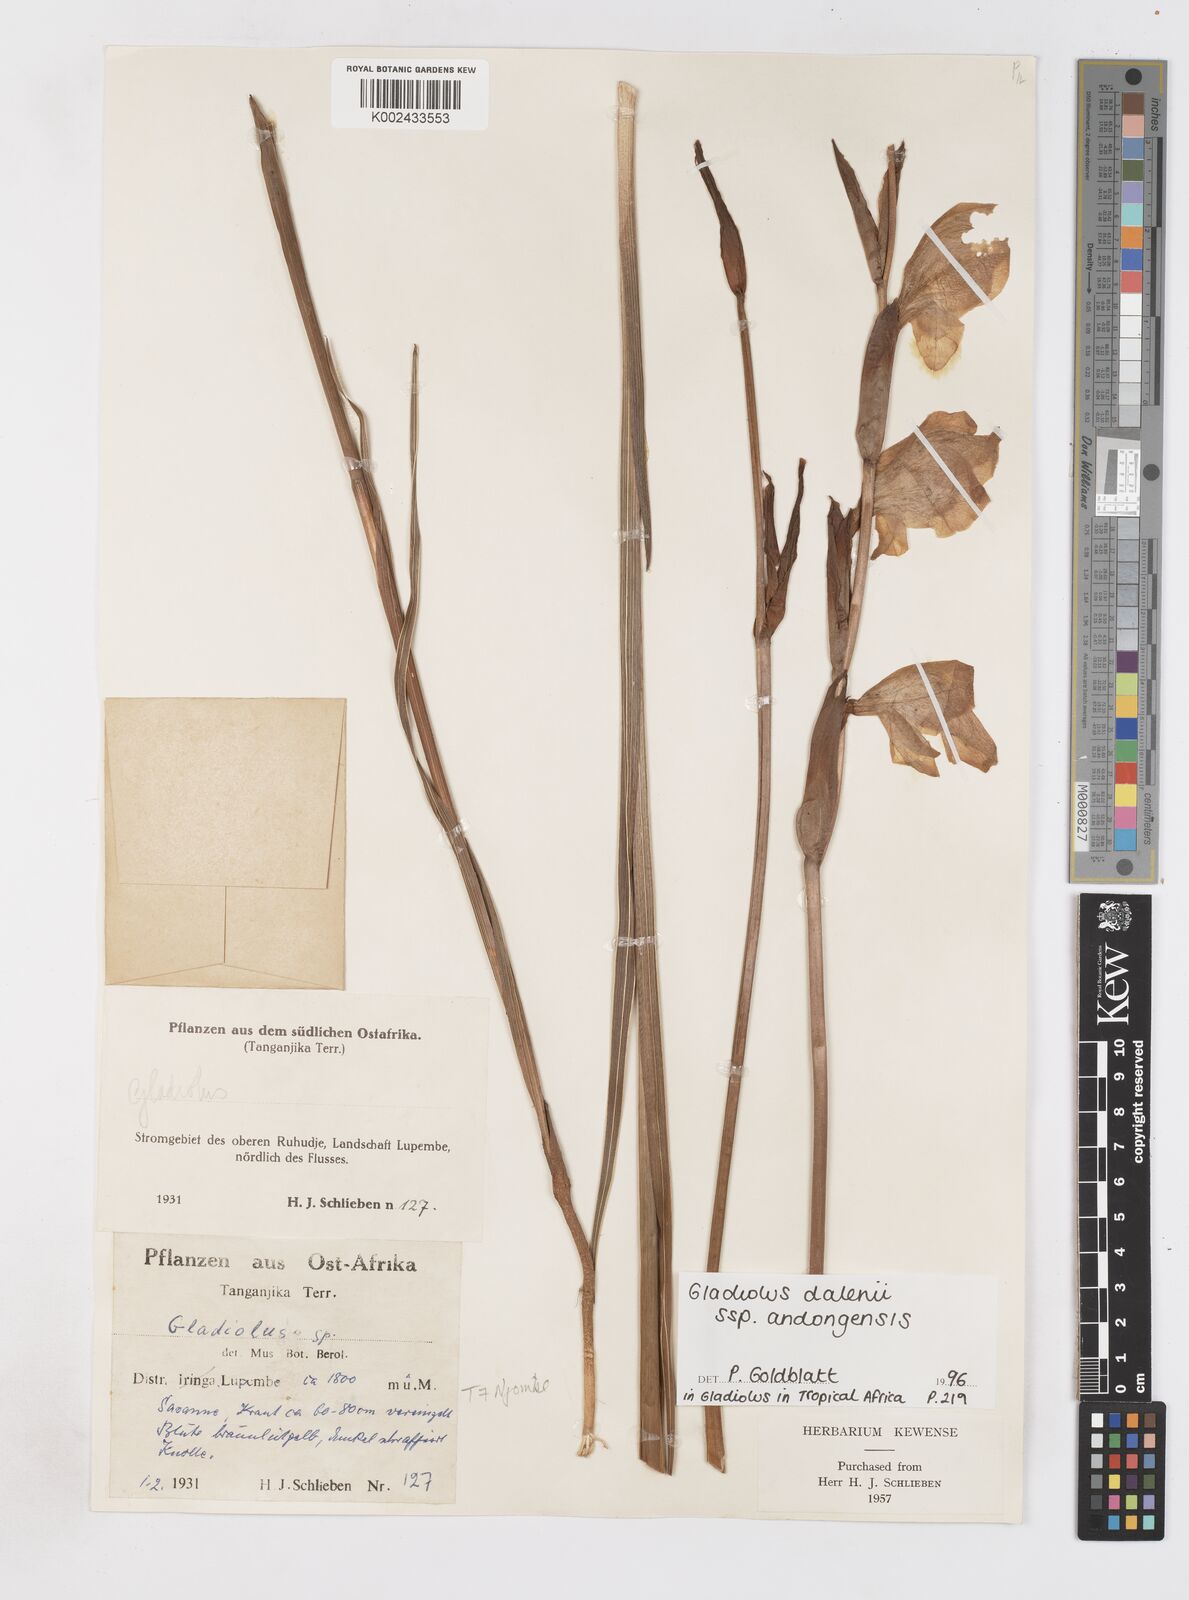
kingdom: Plantae
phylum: Tracheophyta
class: Liliopsida
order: Asparagales
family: Iridaceae
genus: Gladiolus
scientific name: Gladiolus dalenii
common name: Cornflag
